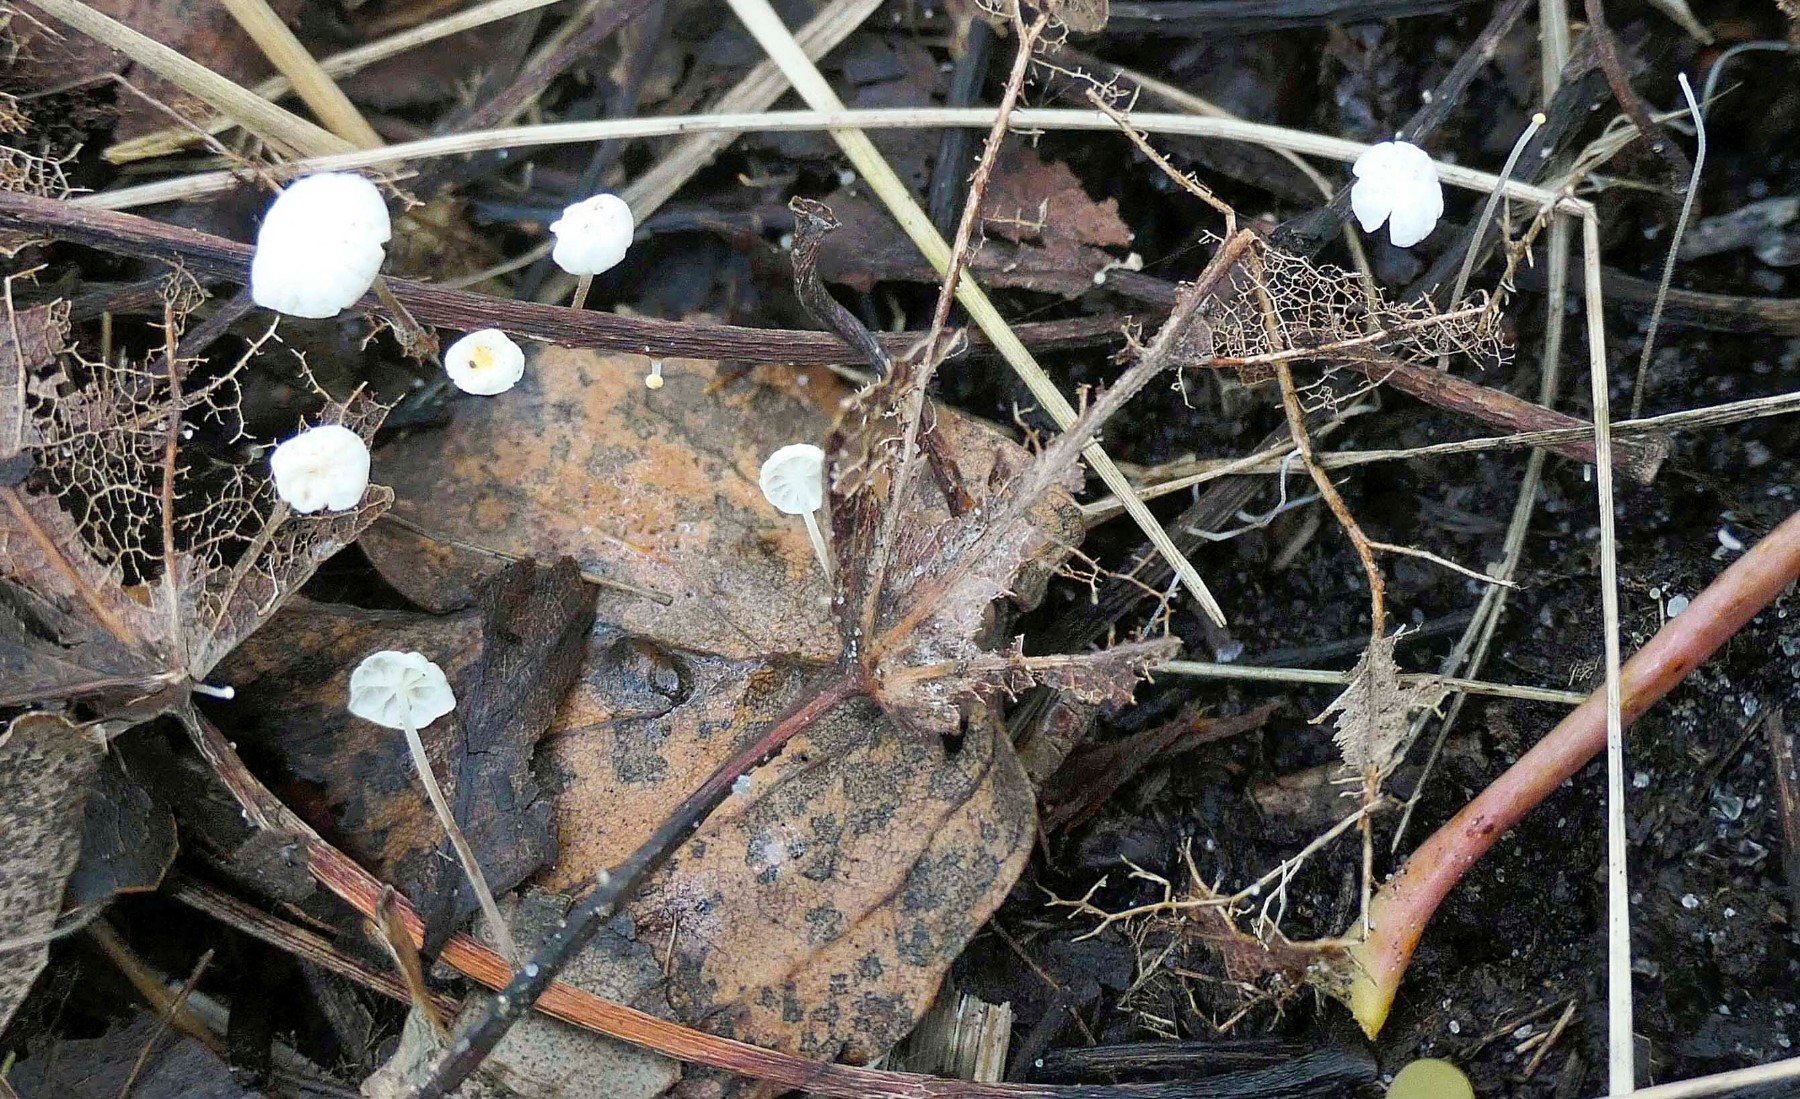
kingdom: Fungi
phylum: Basidiomycota
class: Agaricomycetes
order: Agaricales
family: Marasmiaceae
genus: Marasmius
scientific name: Marasmius epiphyllus
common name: blad-bruskhat
